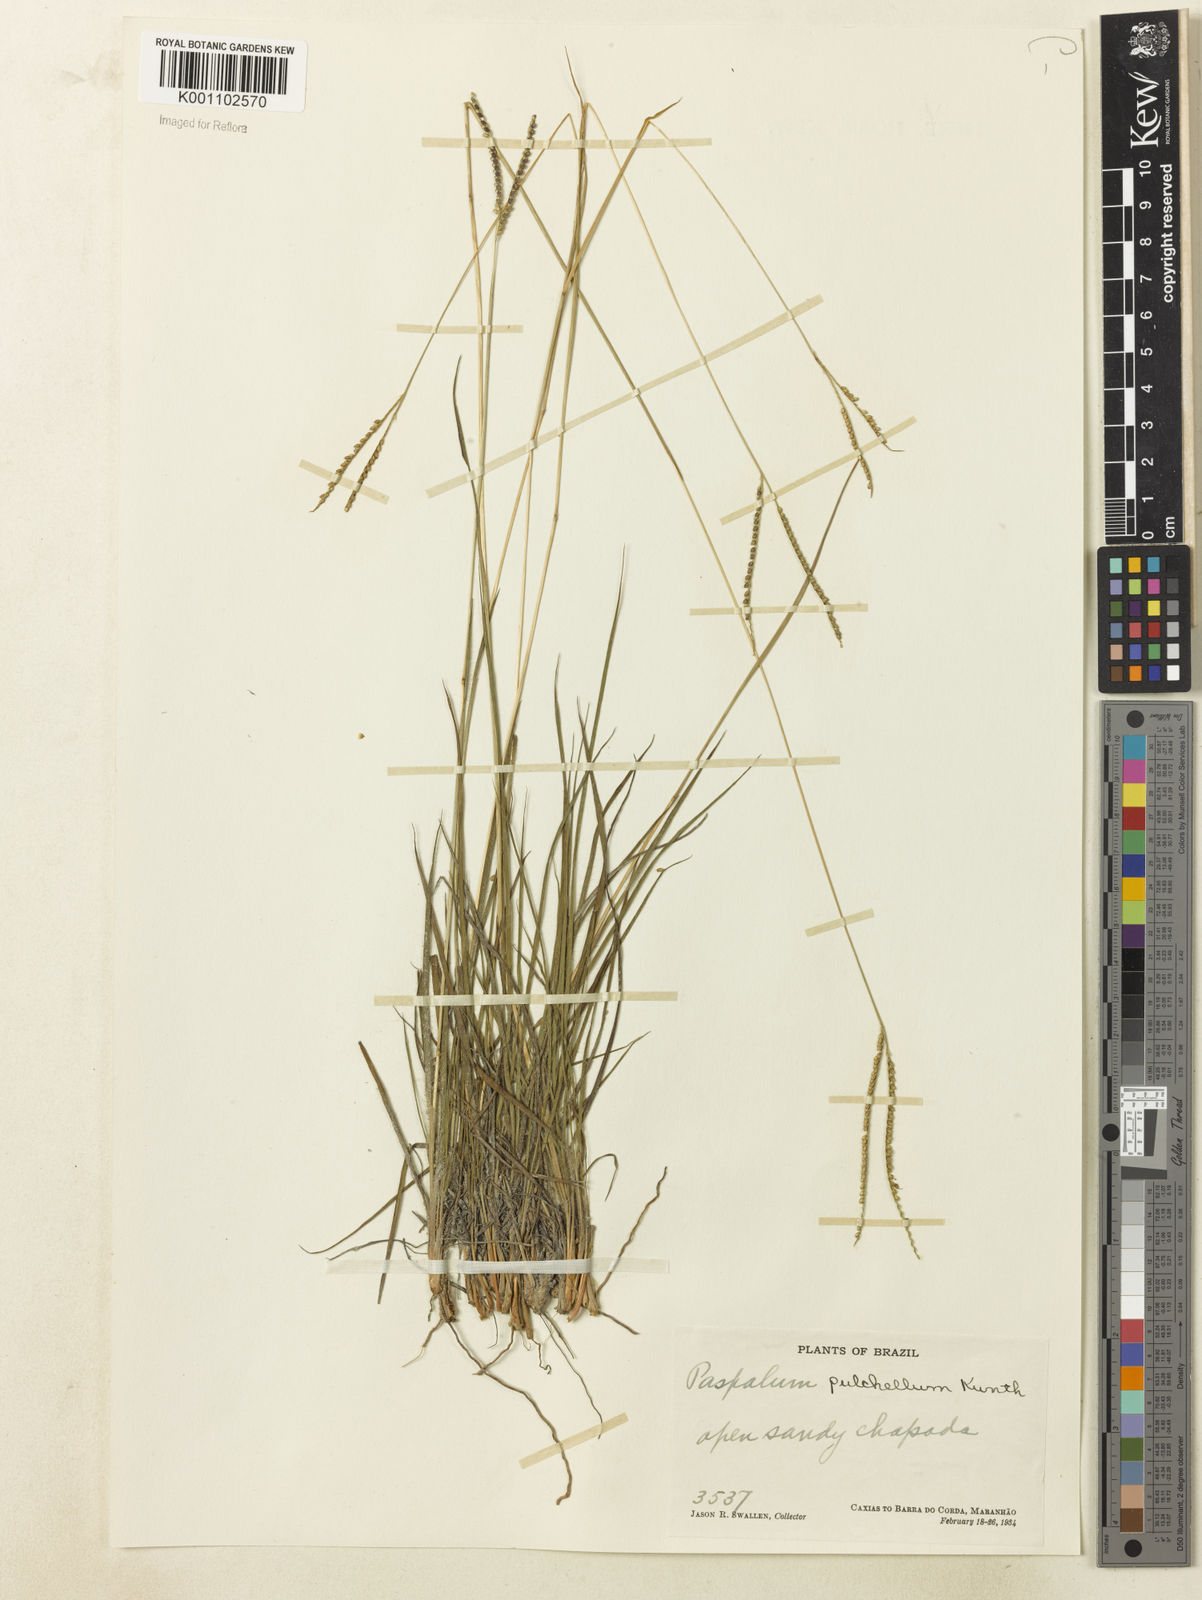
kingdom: Plantae
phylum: Tracheophyta
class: Liliopsida
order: Poales
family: Poaceae
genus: Paspalum
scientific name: Paspalum pulchellum
